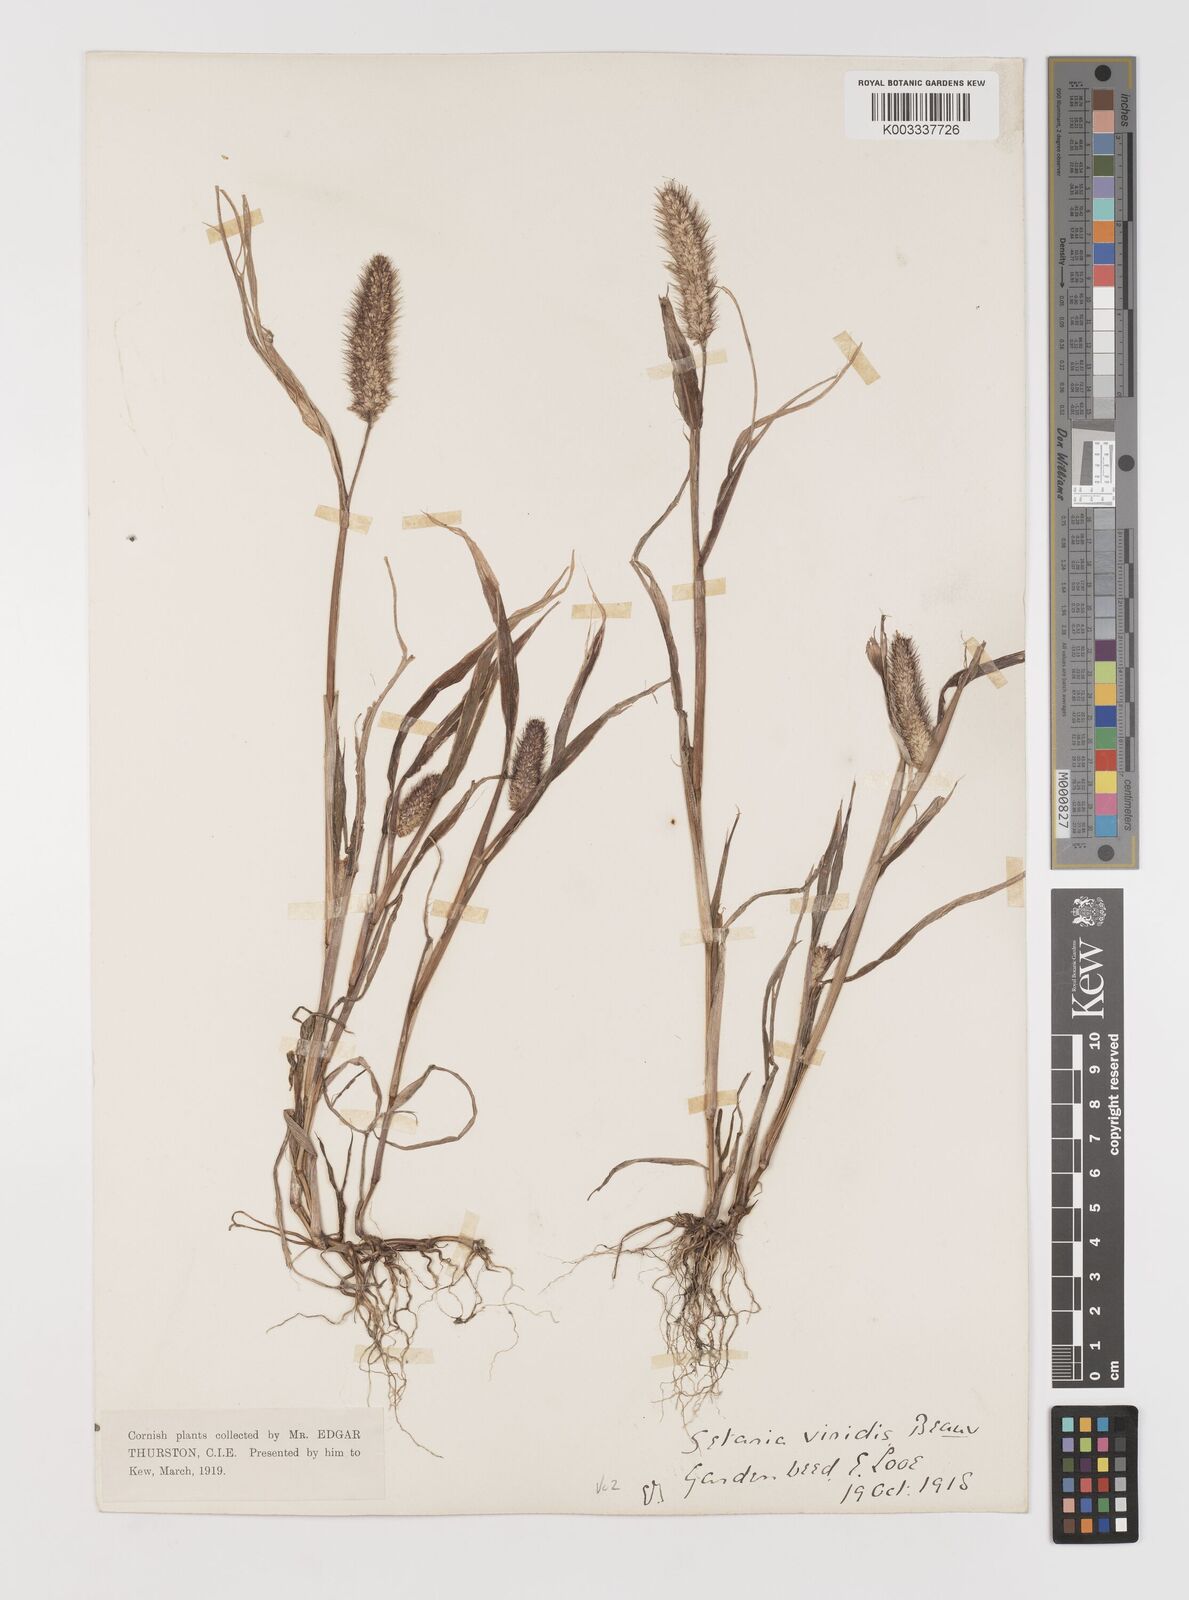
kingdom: Plantae
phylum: Tracheophyta
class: Liliopsida
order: Poales
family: Poaceae
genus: Setaria
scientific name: Setaria viridis
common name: Green bristlegrass
